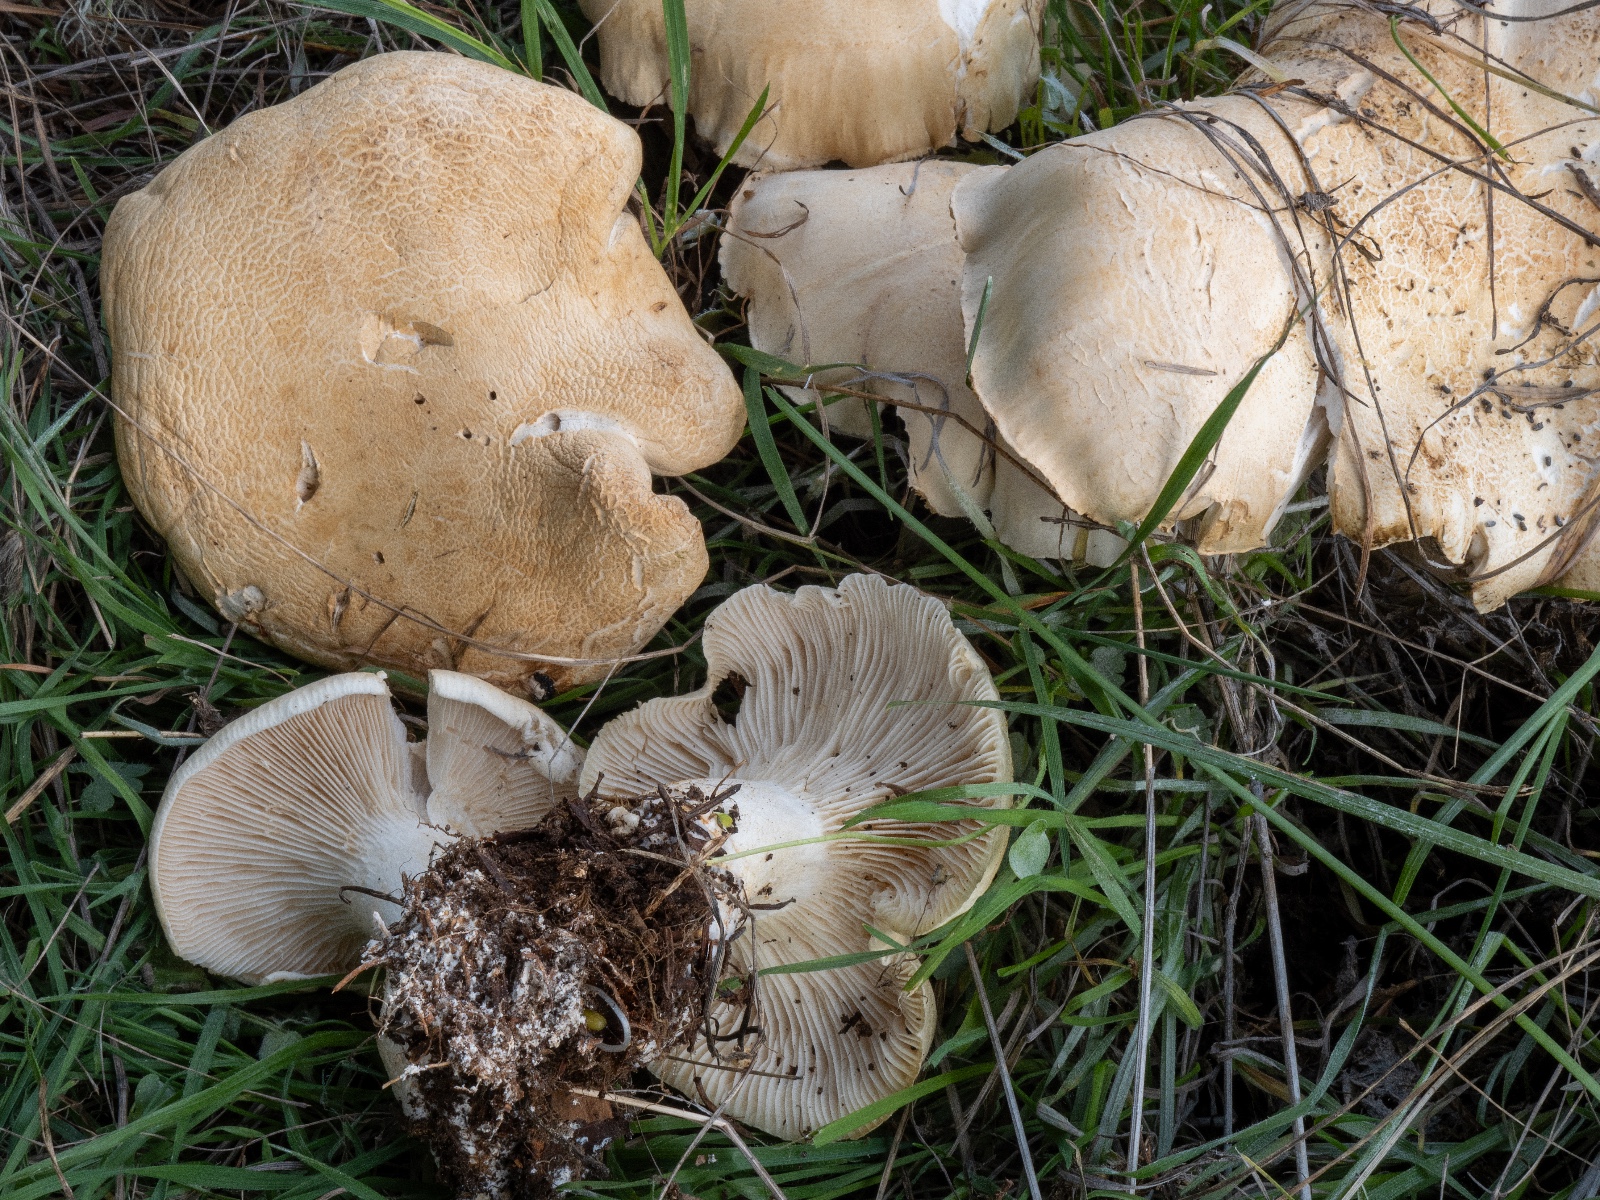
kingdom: Fungi
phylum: Basidiomycota
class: Agaricomycetes
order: Agaricales
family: Tricholomataceae
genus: Leucopaxillus
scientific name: Leucopaxillus
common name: tragtridderhat
